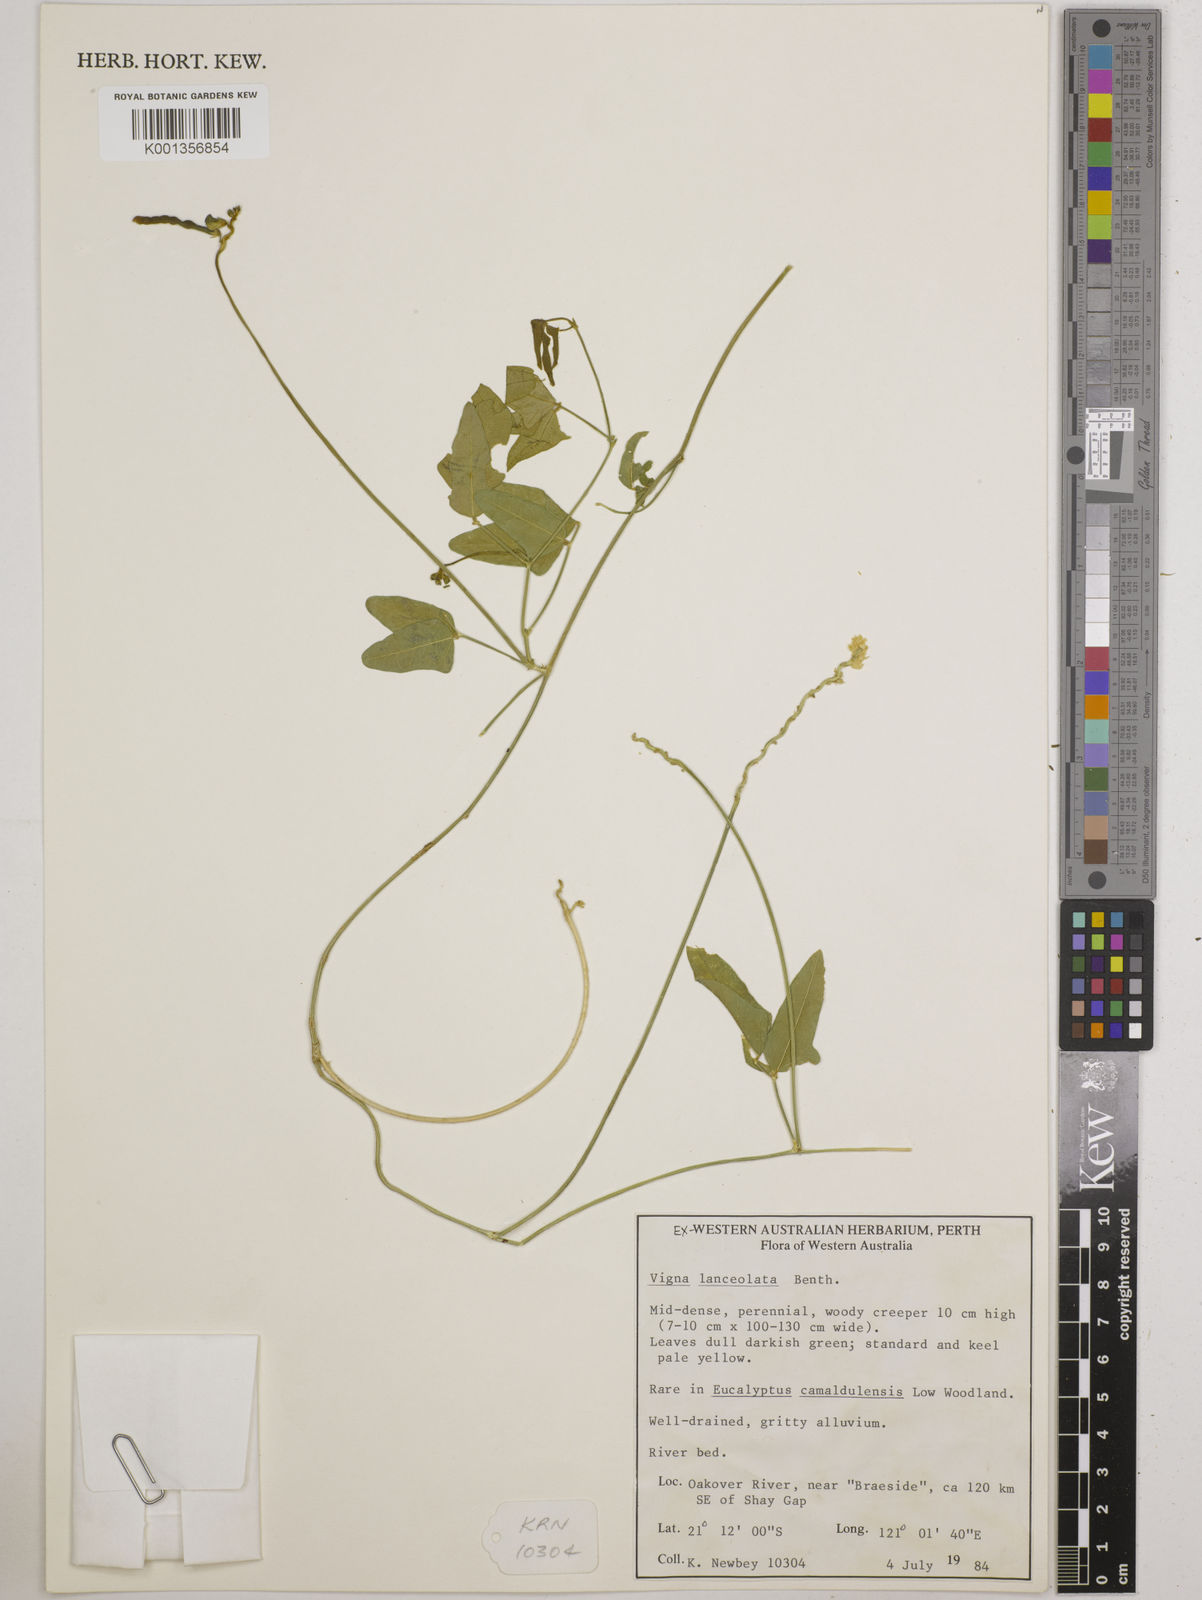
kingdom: Plantae
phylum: Tracheophyta
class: Magnoliopsida
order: Fabales
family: Fabaceae
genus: Vigna
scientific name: Vigna lanceolata
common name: Maloga-bean
